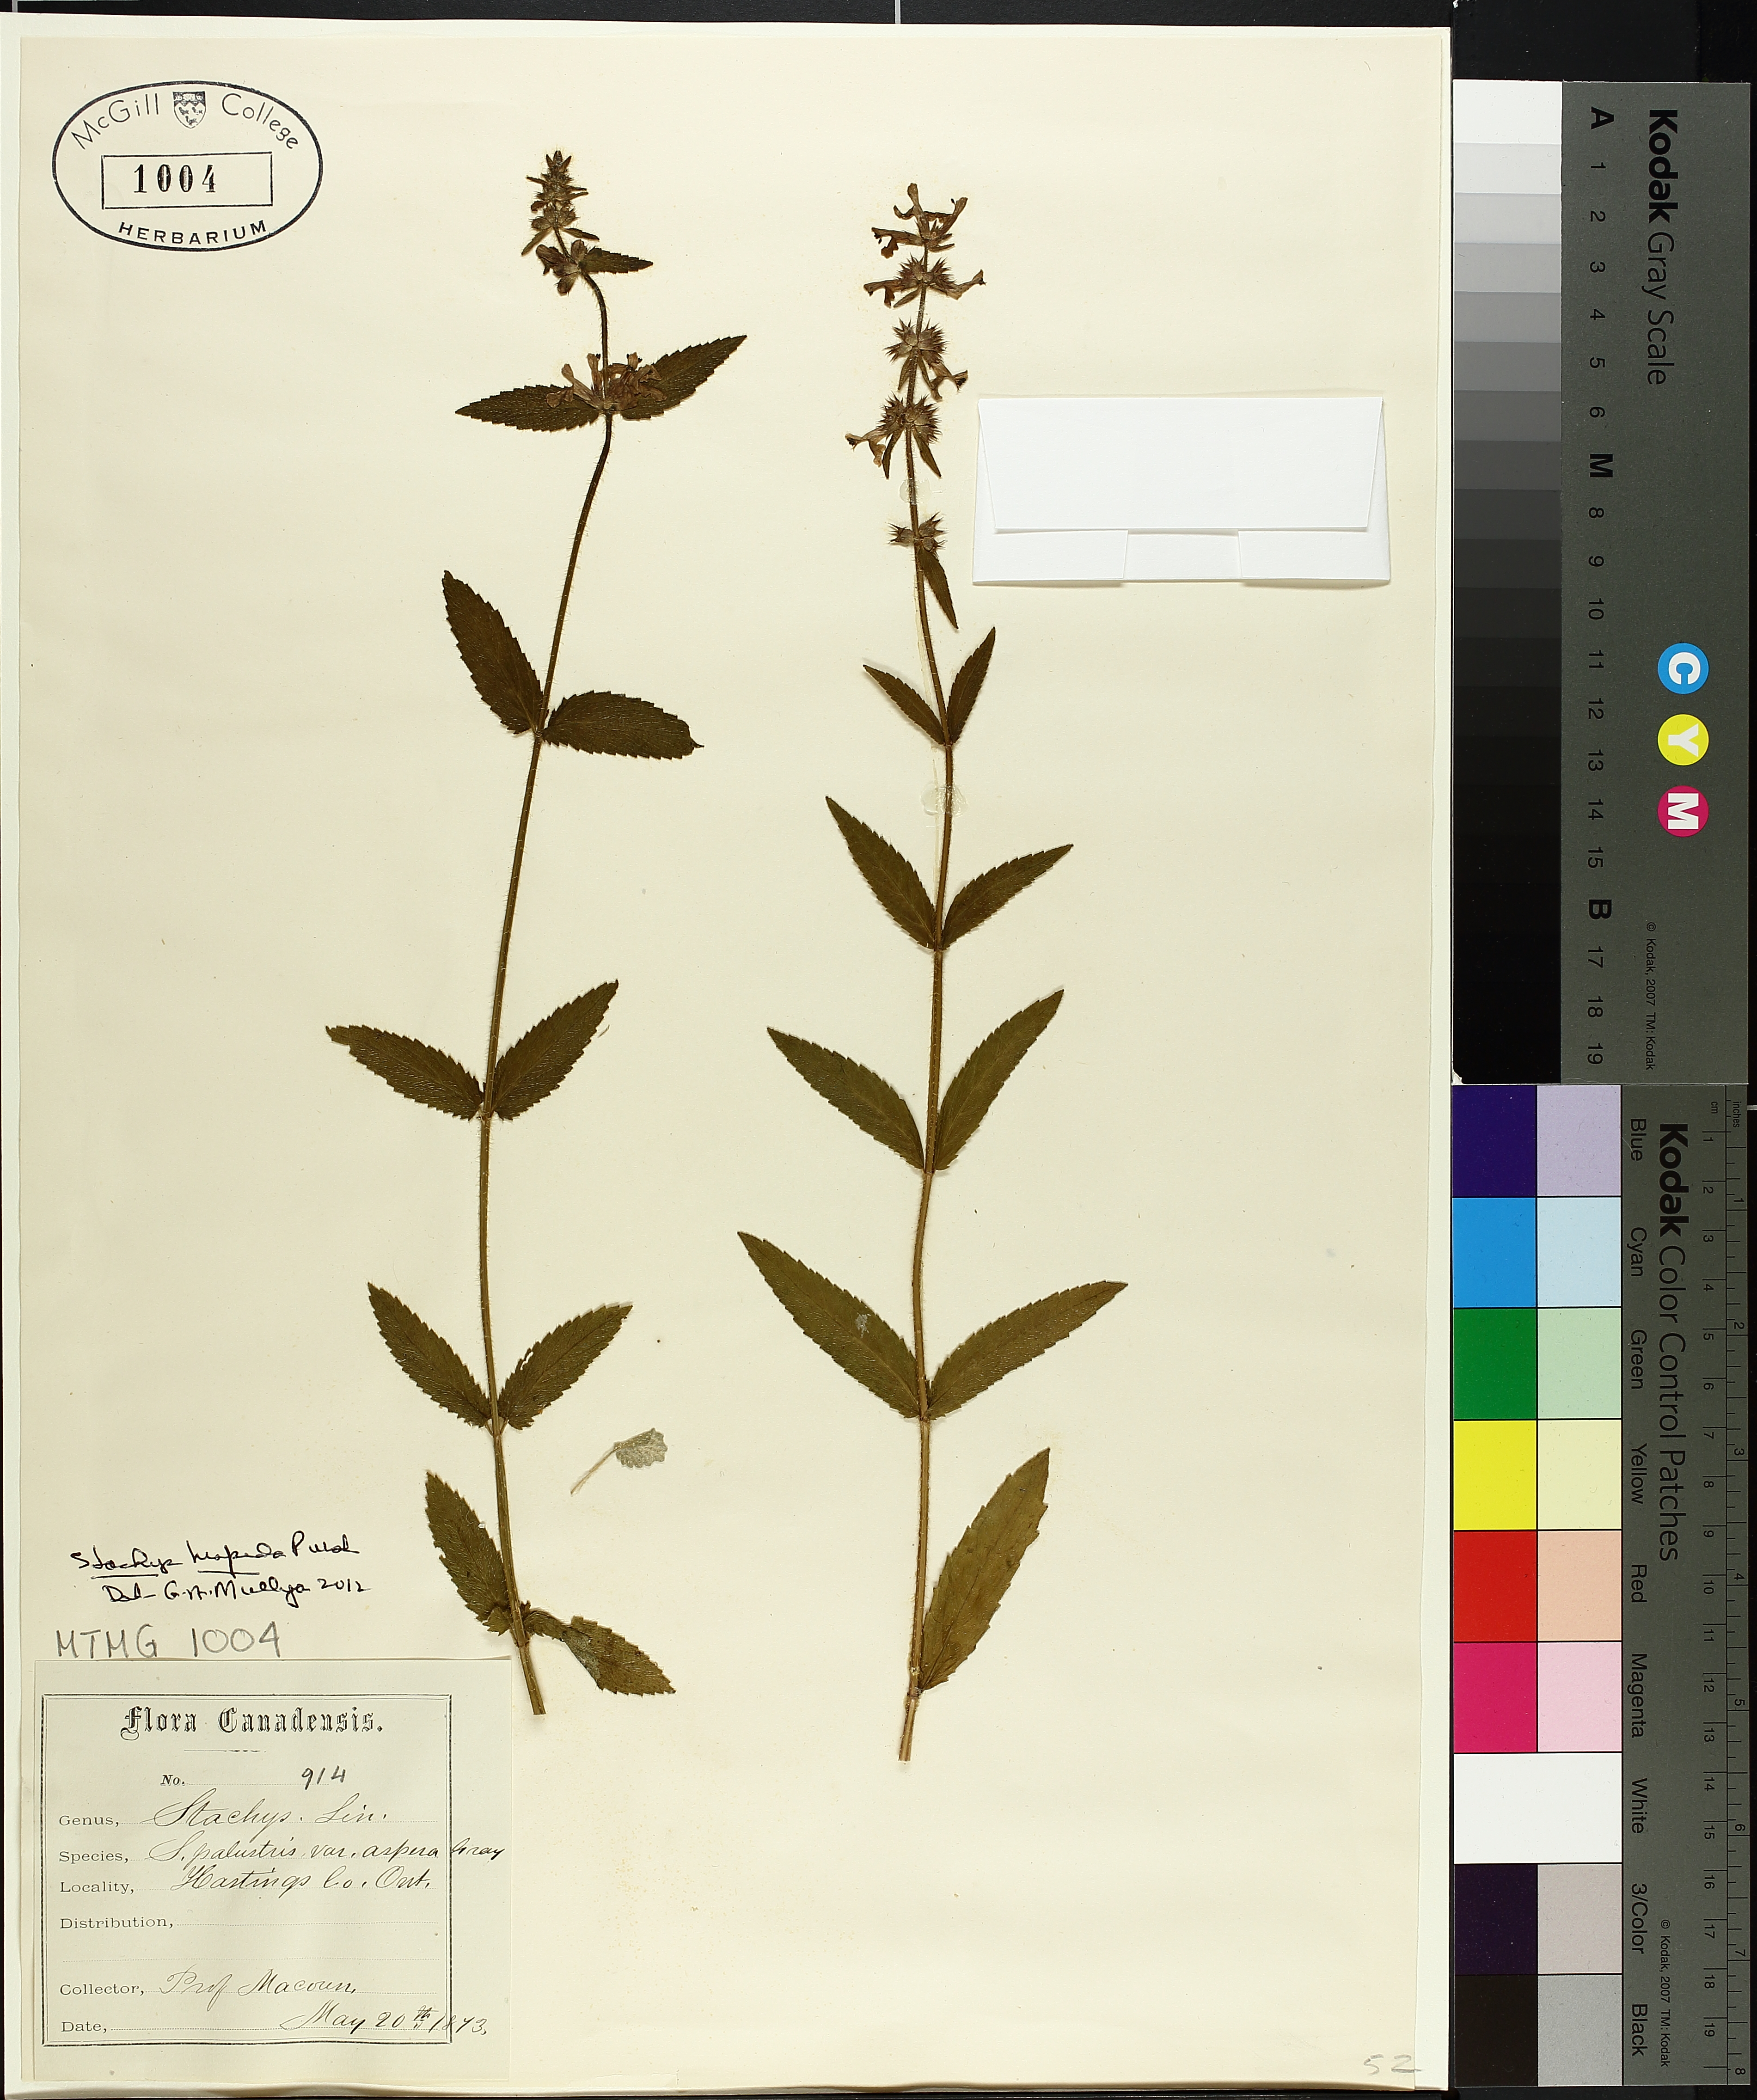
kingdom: Plantae
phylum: Tracheophyta
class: Magnoliopsida
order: Lamiales
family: Lamiaceae
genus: Stachys
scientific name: Stachys palustris
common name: Marsh woundwort
